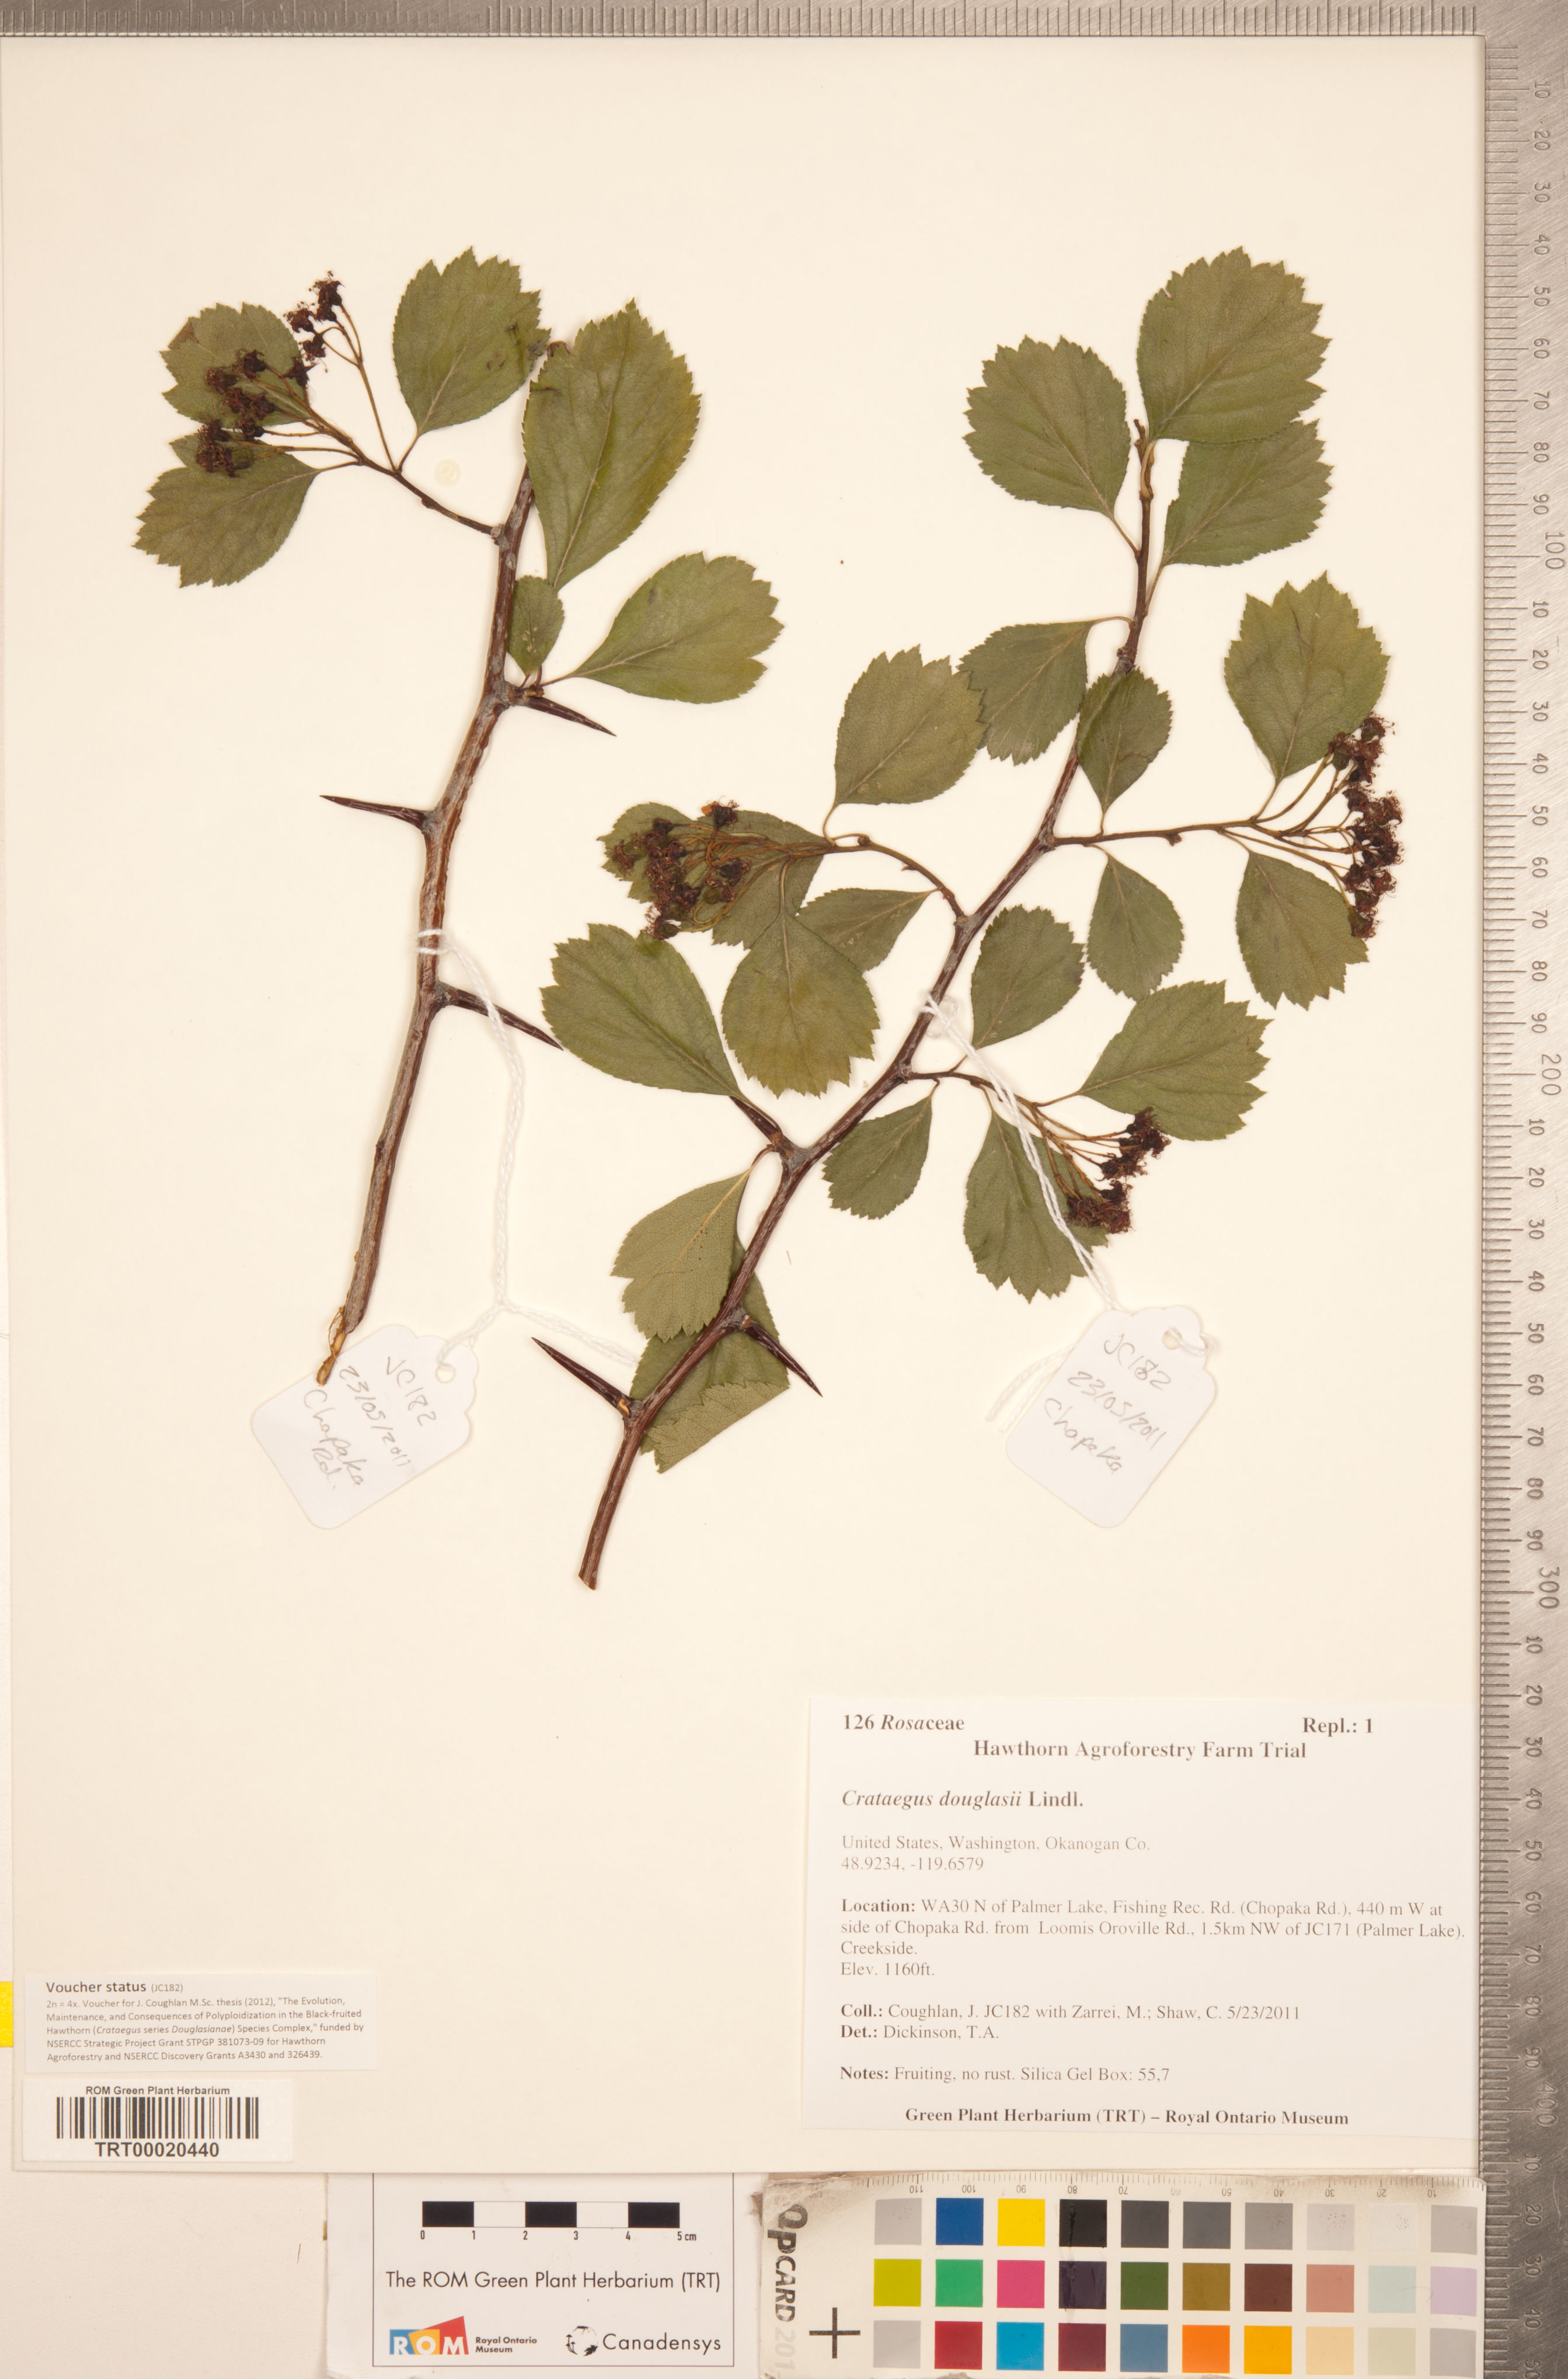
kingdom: Plantae
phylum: Tracheophyta
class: Magnoliopsida
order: Rosales
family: Rosaceae
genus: Crataegus
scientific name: Crataegus douglasii
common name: Black hawthorn
